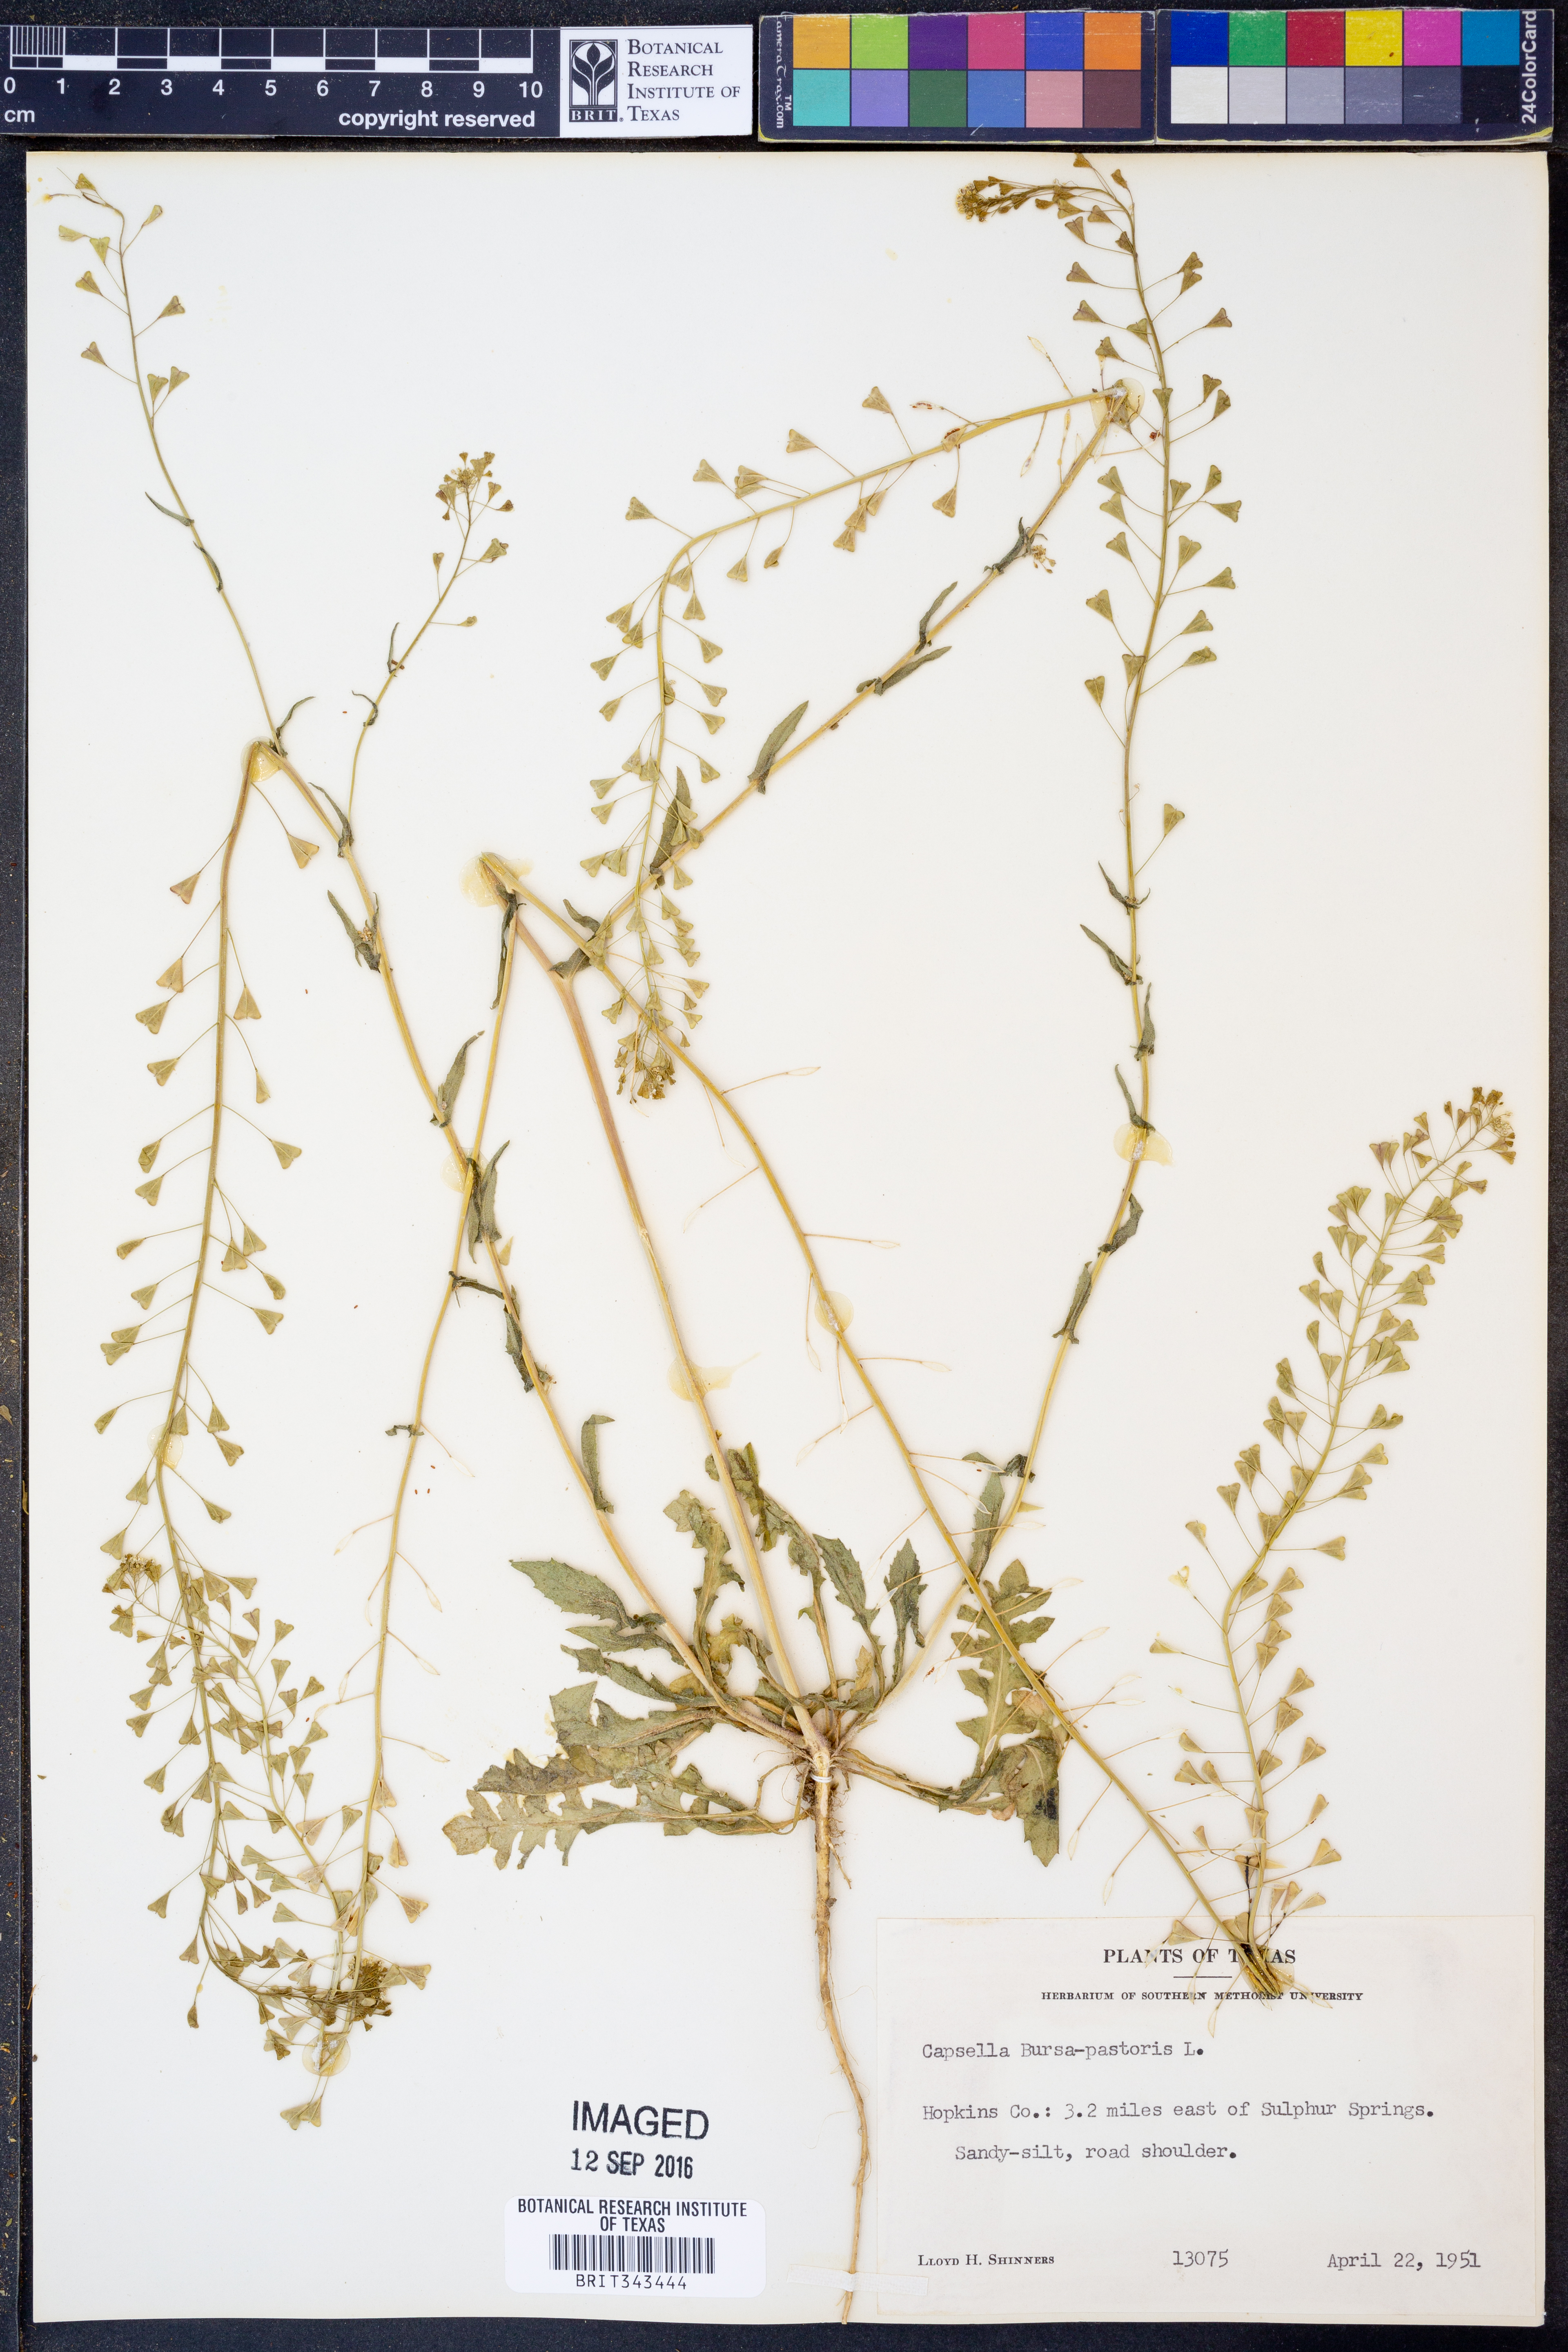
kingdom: Plantae
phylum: Tracheophyta
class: Magnoliopsida
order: Brassicales
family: Brassicaceae
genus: Capsella
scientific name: Capsella bursa-pastoris
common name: Shepherd's purse
